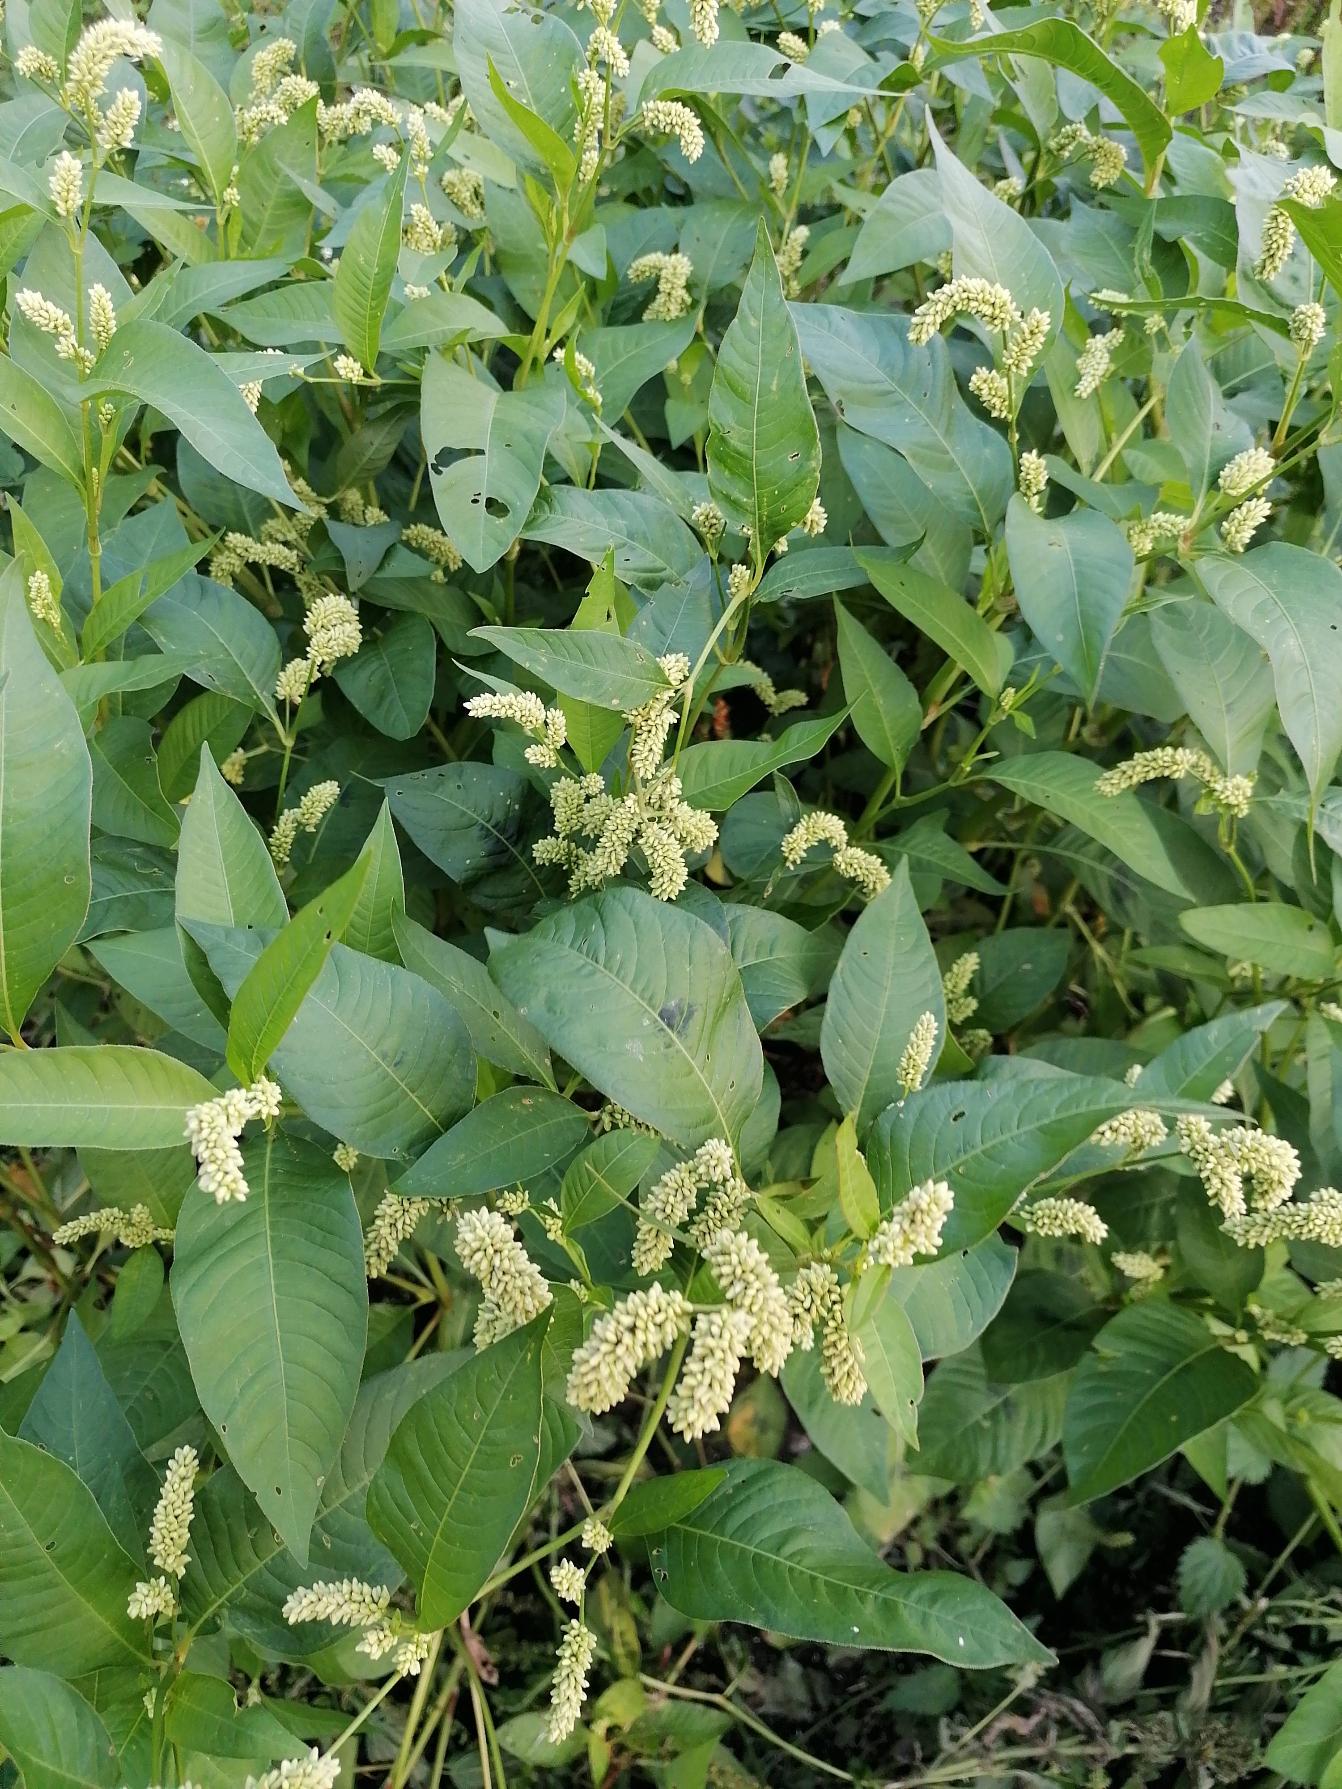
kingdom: Plantae
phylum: Tracheophyta
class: Magnoliopsida
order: Caryophyllales
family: Polygonaceae
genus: Persicaria
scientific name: Persicaria lapathifolia
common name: Knudet pileurt
